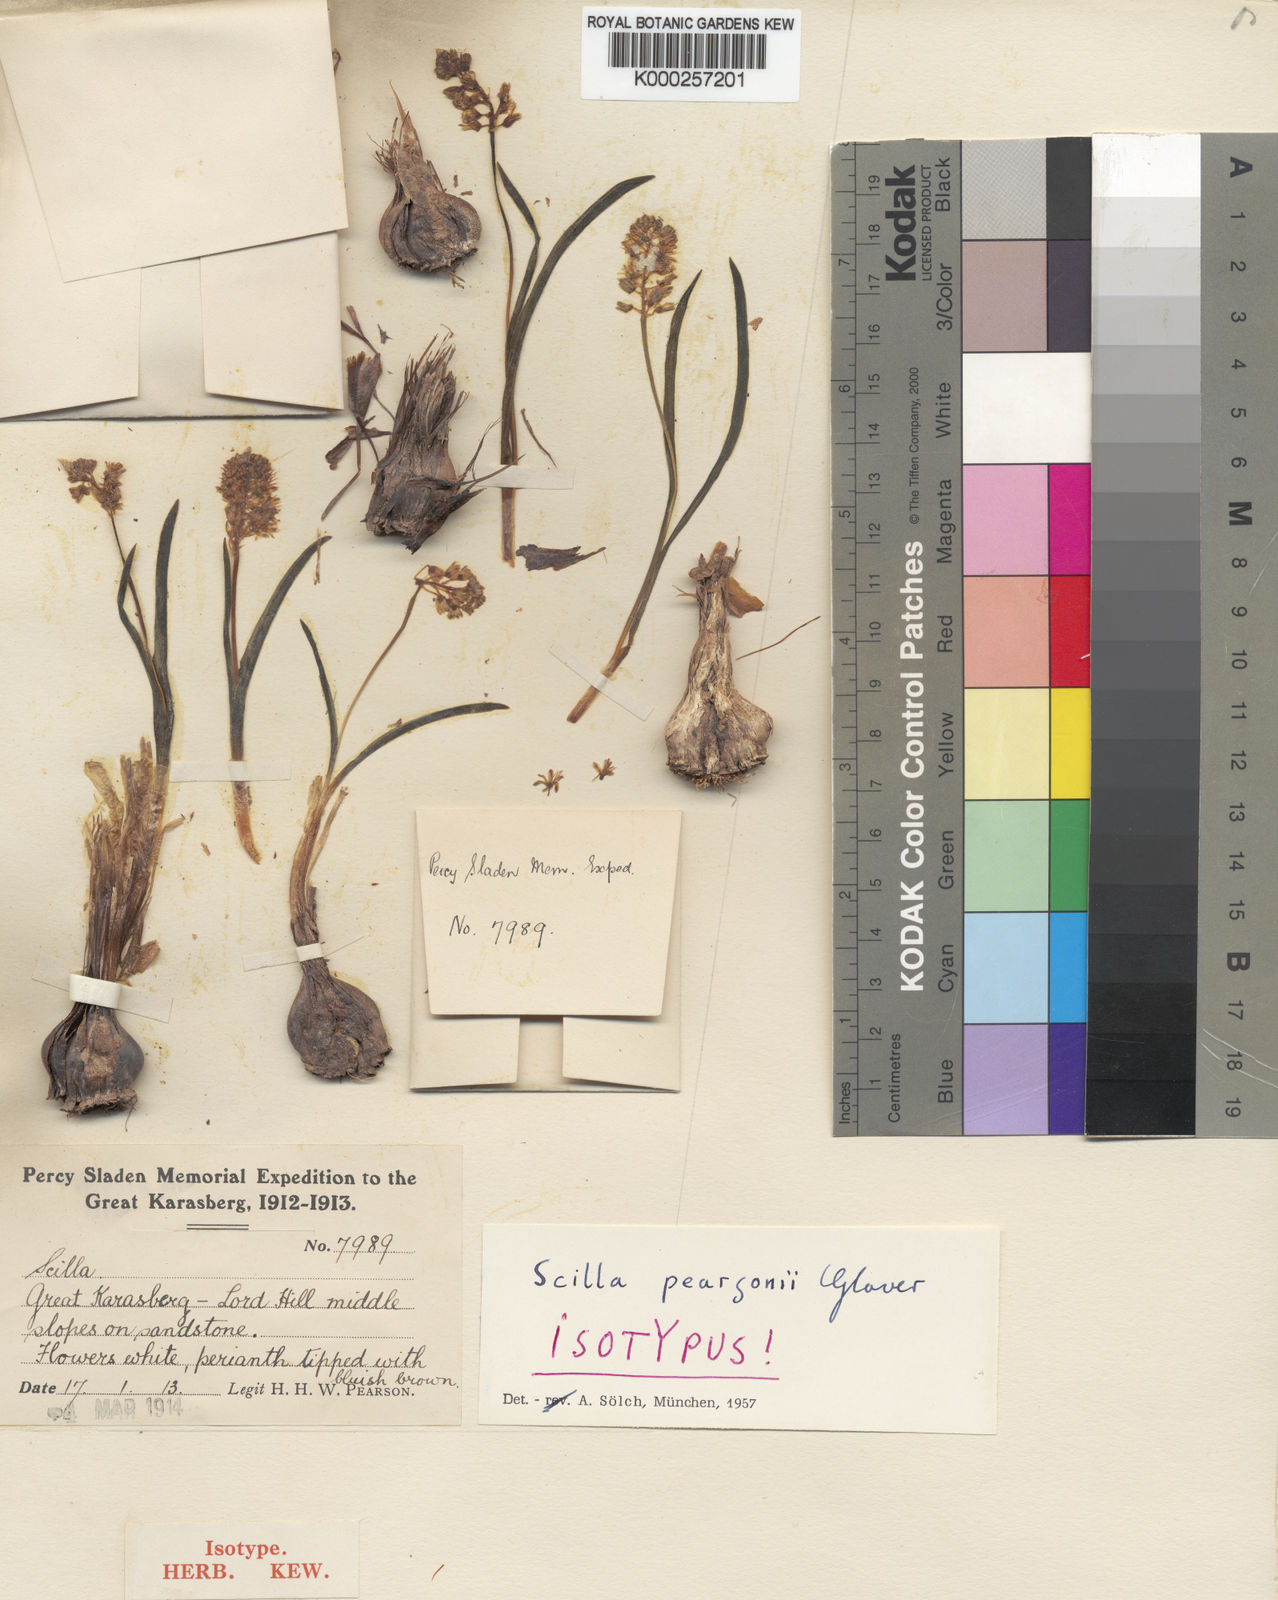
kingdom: Plantae
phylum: Tracheophyta
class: Liliopsida
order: Asparagales
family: Asparagaceae
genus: Lachenalia
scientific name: Lachenalia pearsonii
